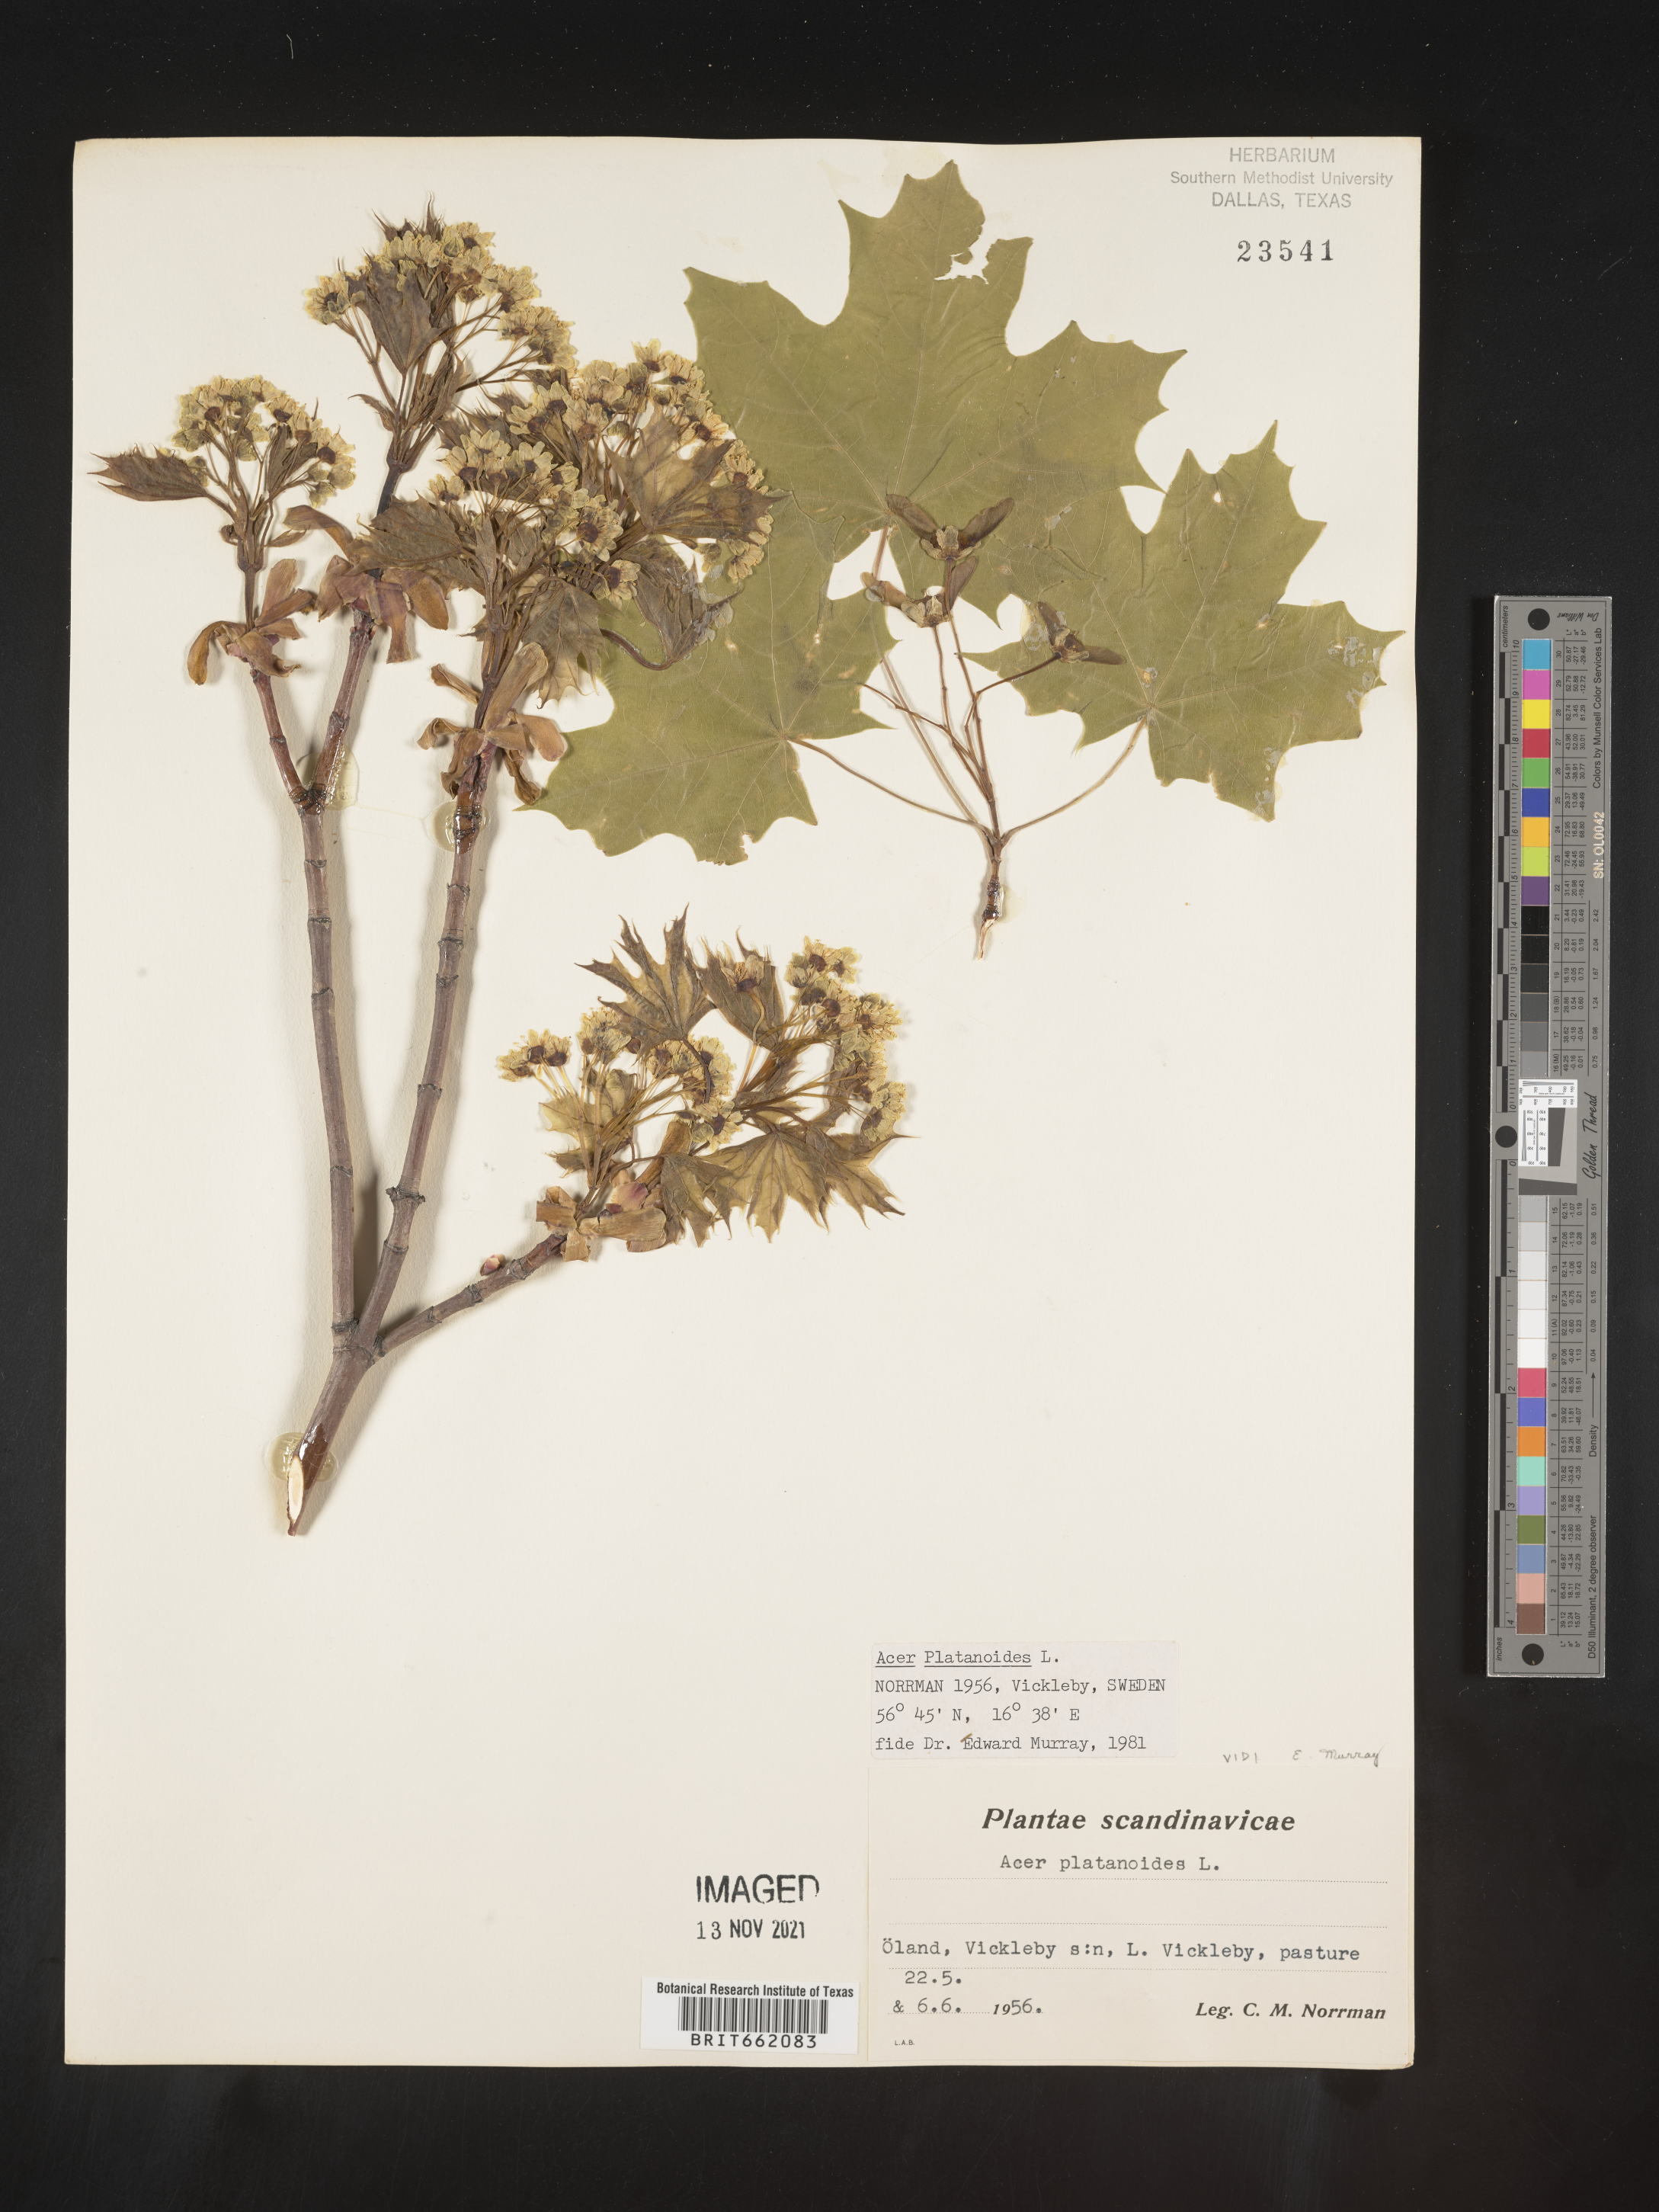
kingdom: Plantae
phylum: Tracheophyta
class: Magnoliopsida
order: Sapindales
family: Sapindaceae
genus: Acer
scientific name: Acer
